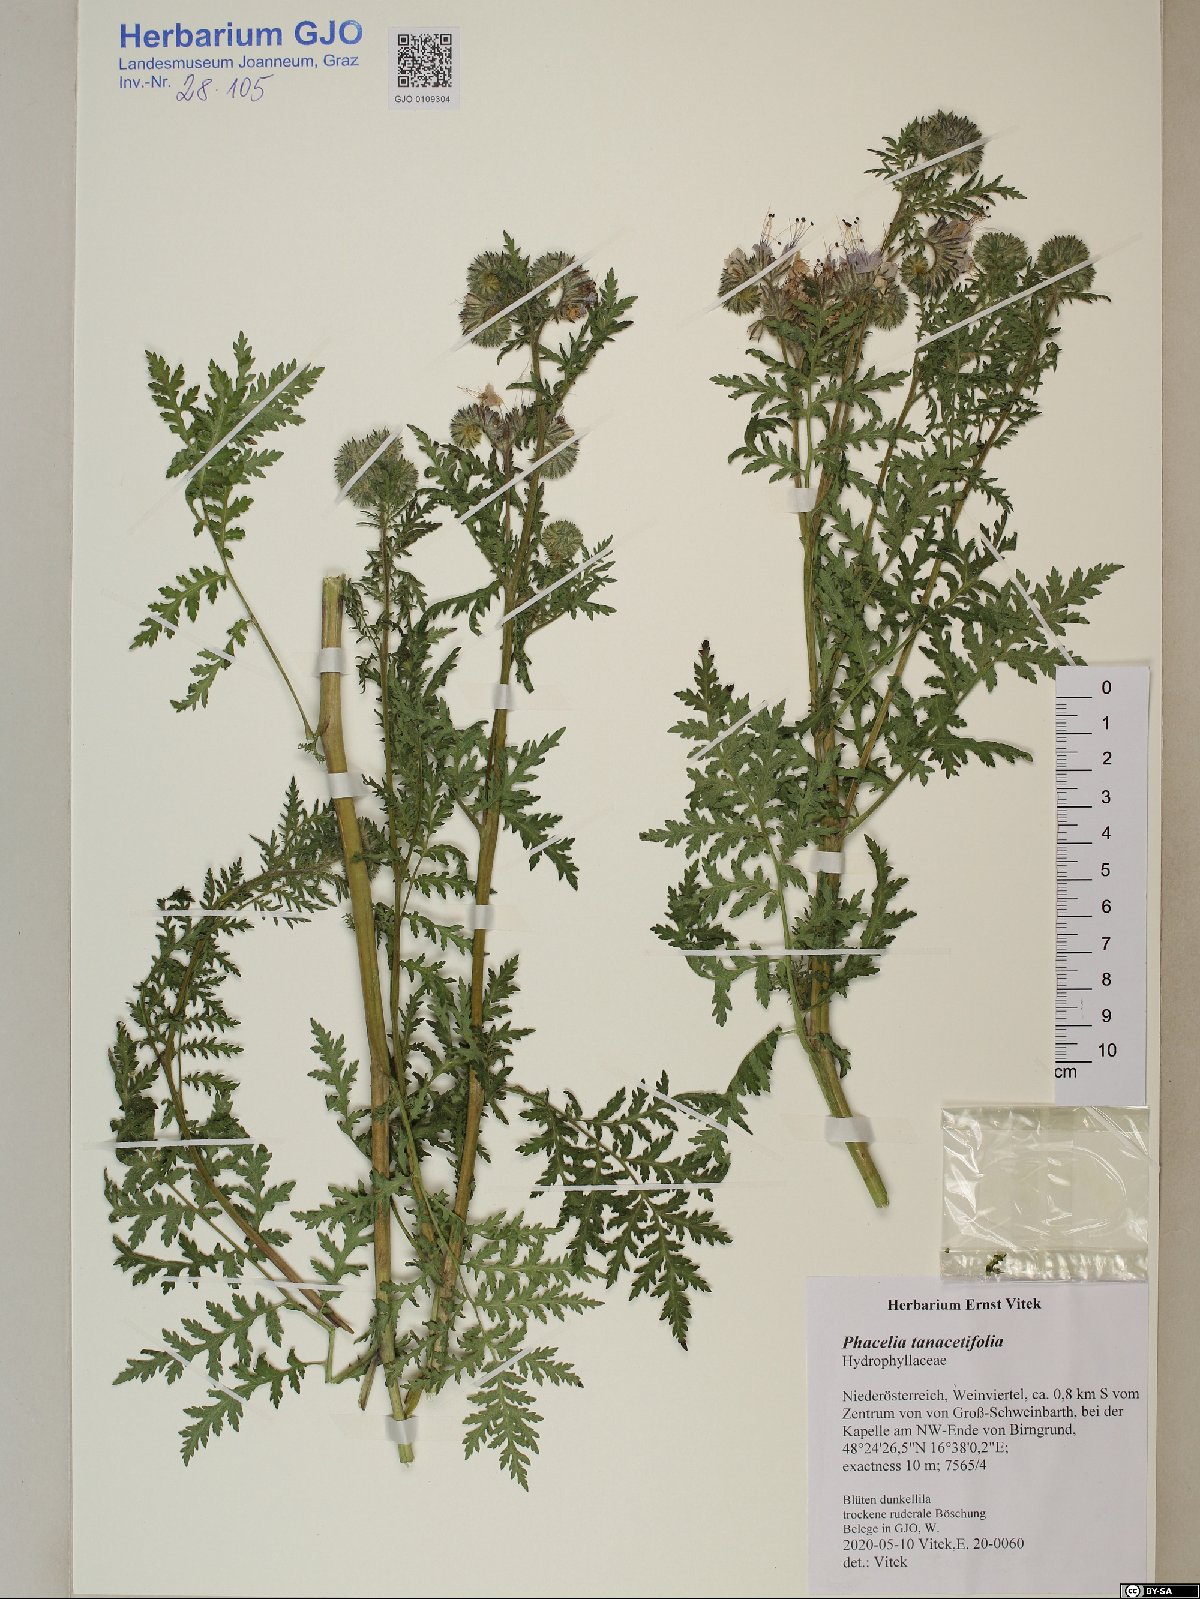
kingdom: Plantae
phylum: Tracheophyta
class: Magnoliopsida
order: Boraginales
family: Hydrophyllaceae
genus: Phacelia
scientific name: Phacelia tanacetifolia
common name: Phacelia
